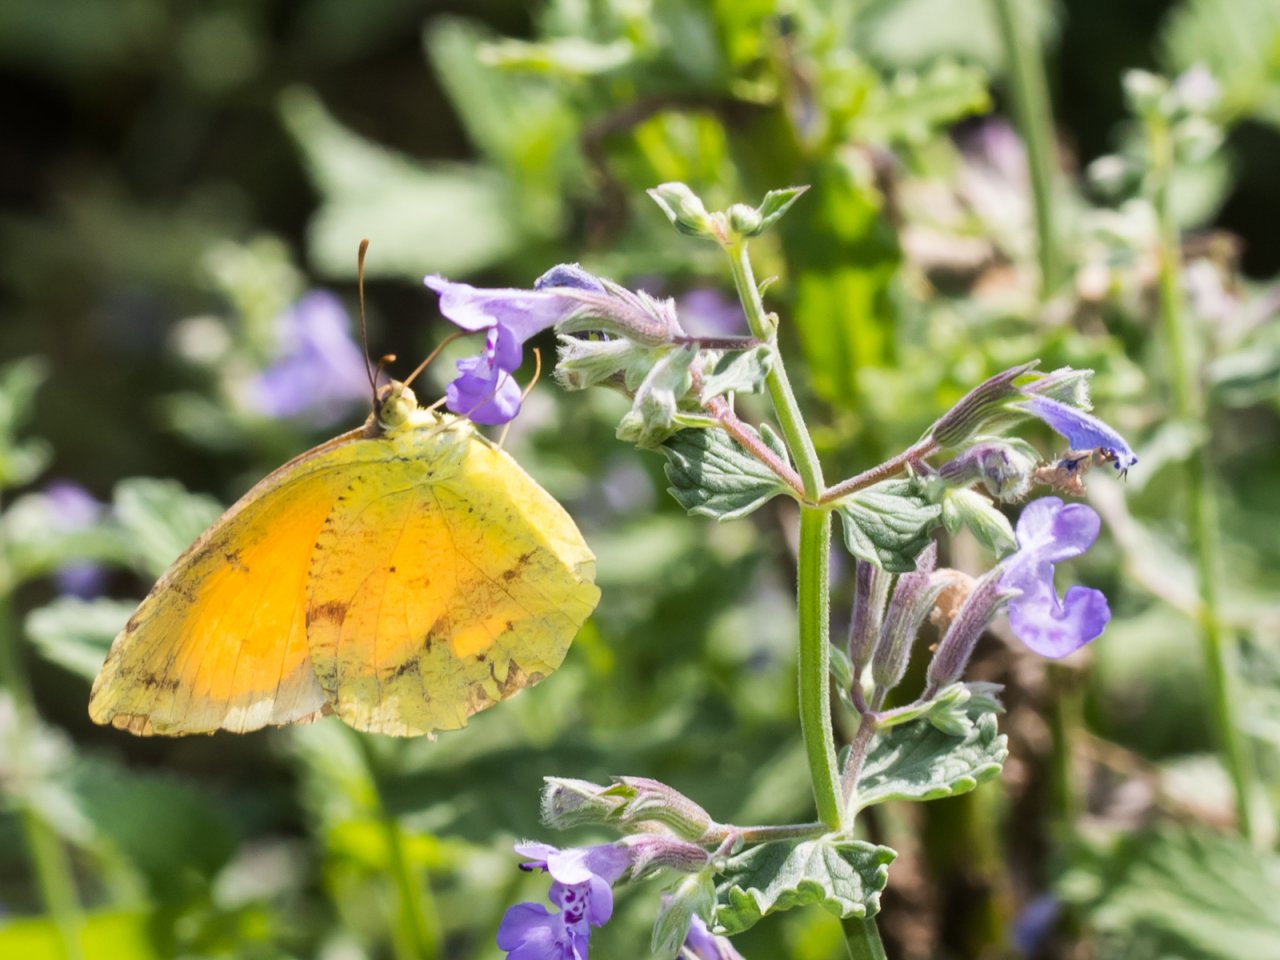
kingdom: Animalia
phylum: Arthropoda
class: Insecta
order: Lepidoptera
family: Pieridae
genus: Abaeis
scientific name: Abaeis nicippe
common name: Sleepy Orange
